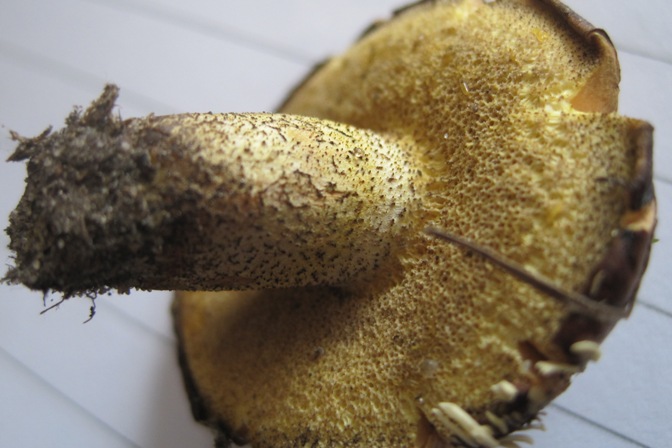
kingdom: Fungi
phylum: Basidiomycota
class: Agaricomycetes
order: Boletales
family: Suillaceae
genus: Suillus
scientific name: Suillus granulatus
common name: kornet slimrørhat
